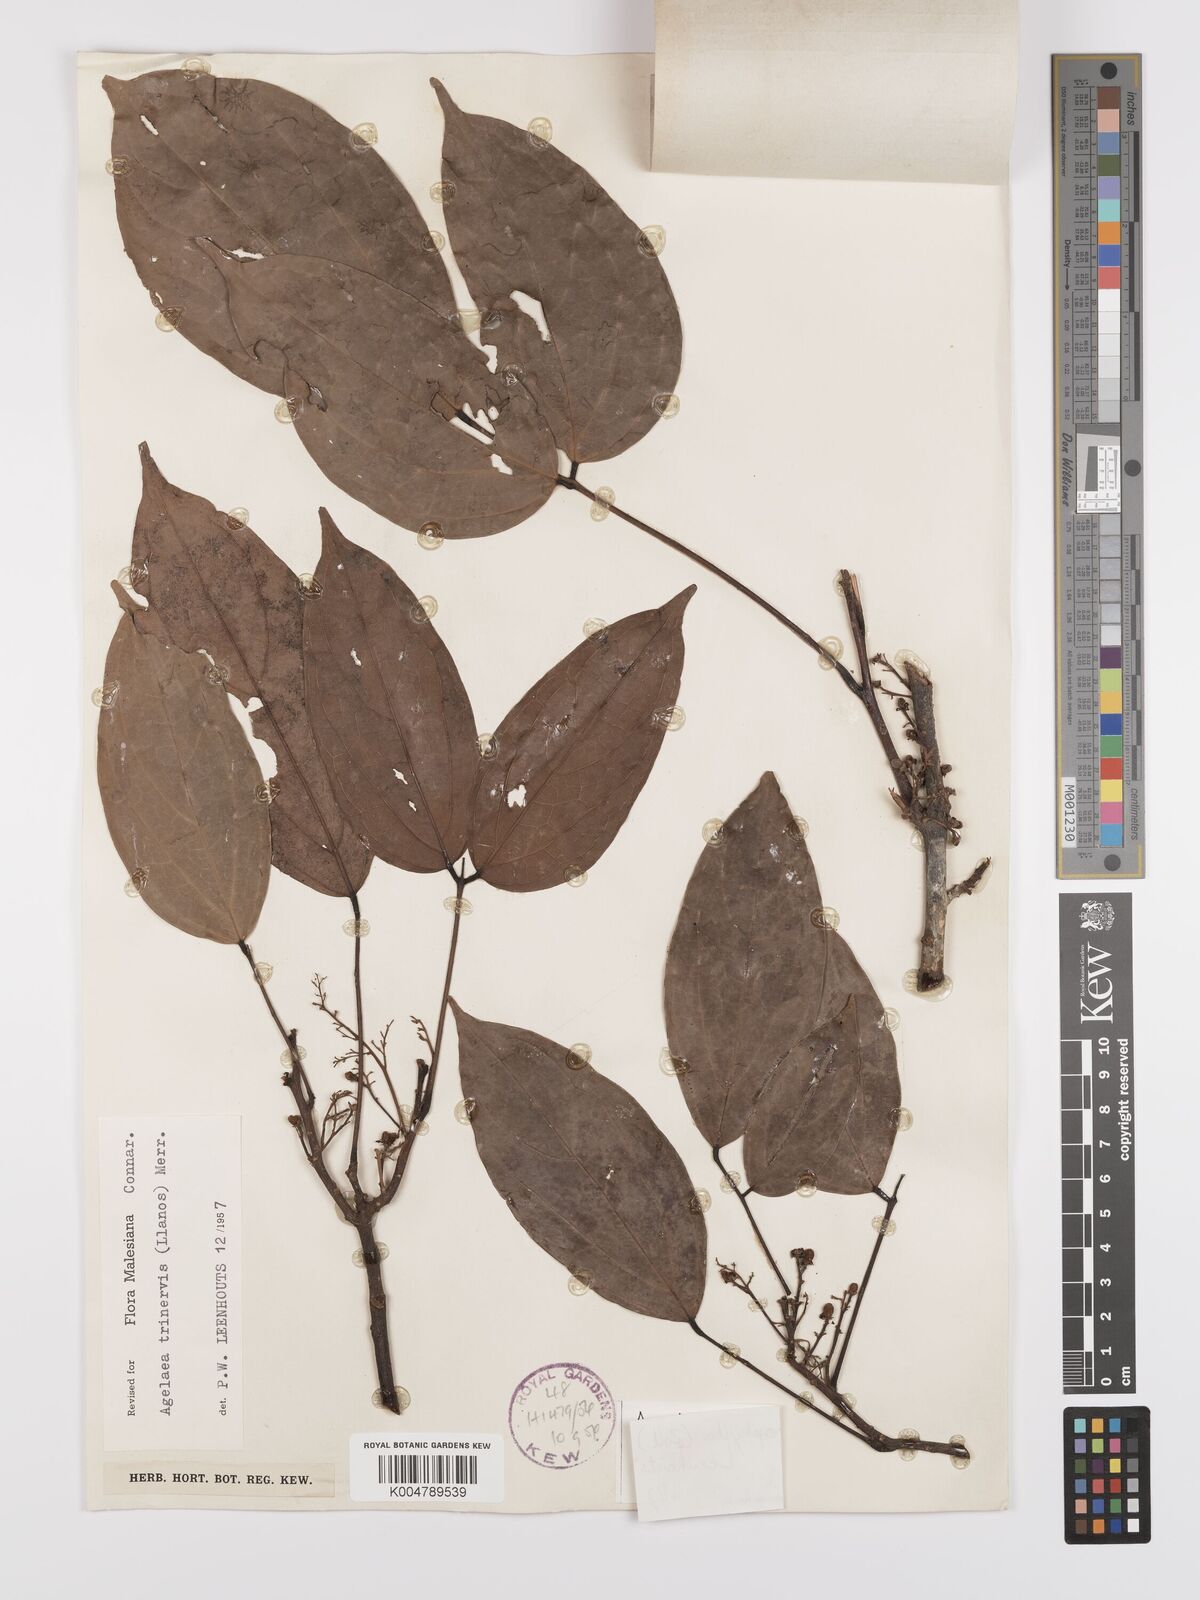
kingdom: Plantae
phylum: Tracheophyta
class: Magnoliopsida
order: Oxalidales
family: Connaraceae
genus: Agelaea
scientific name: Agelaea trinervis
